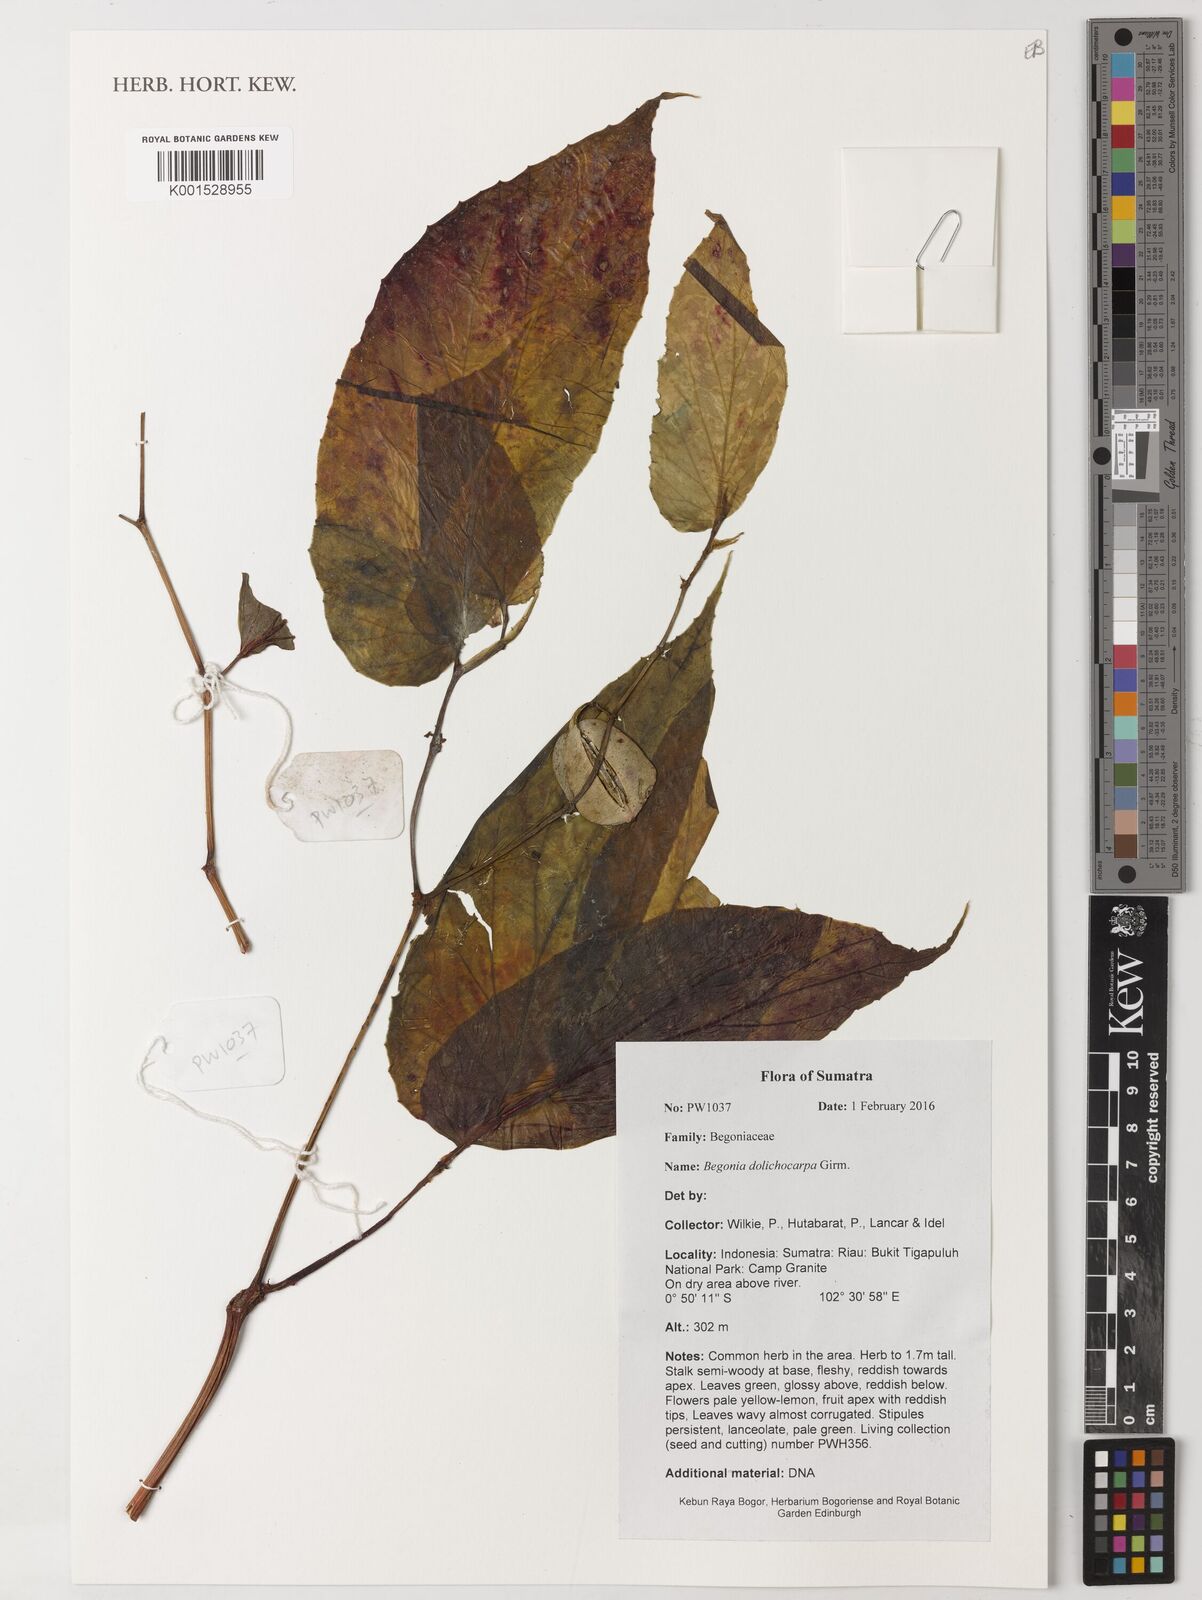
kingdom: Plantae
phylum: Tracheophyta
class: Magnoliopsida
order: Cucurbitales
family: Begoniaceae
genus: Begonia
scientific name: Begonia dolichocarpa
